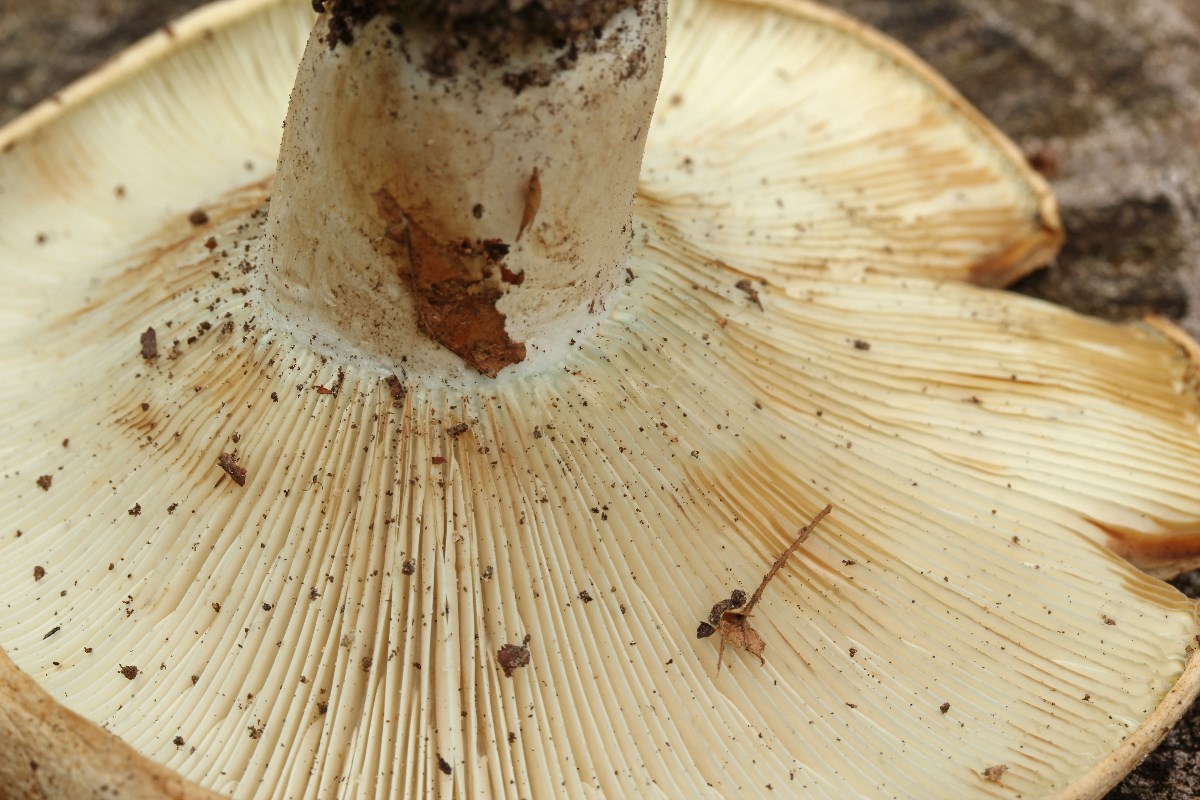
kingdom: Fungi
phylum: Basidiomycota
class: Agaricomycetes
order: Russulales
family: Russulaceae
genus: Russula
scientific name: Russula chloroides
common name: grønhalset tragt-skørhat
